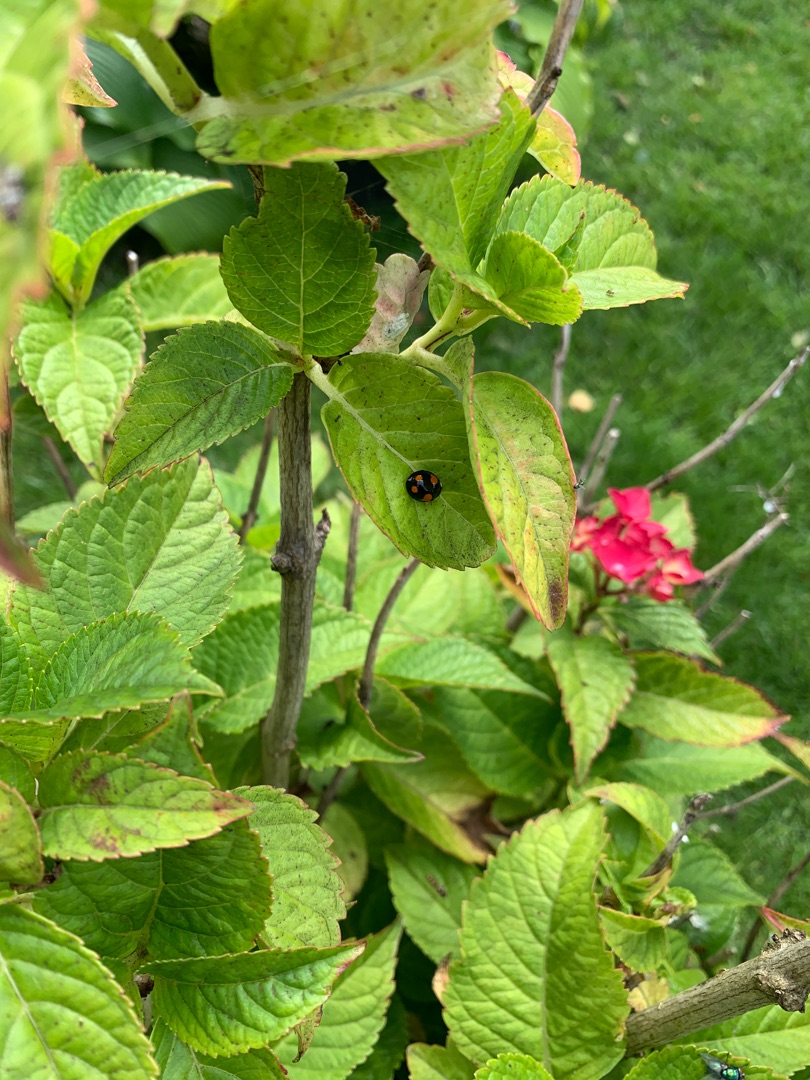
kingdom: Animalia
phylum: Arthropoda
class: Insecta
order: Coleoptera
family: Coccinellidae
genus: Harmonia
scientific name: Harmonia axyridis
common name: Harlekinmariehøne
